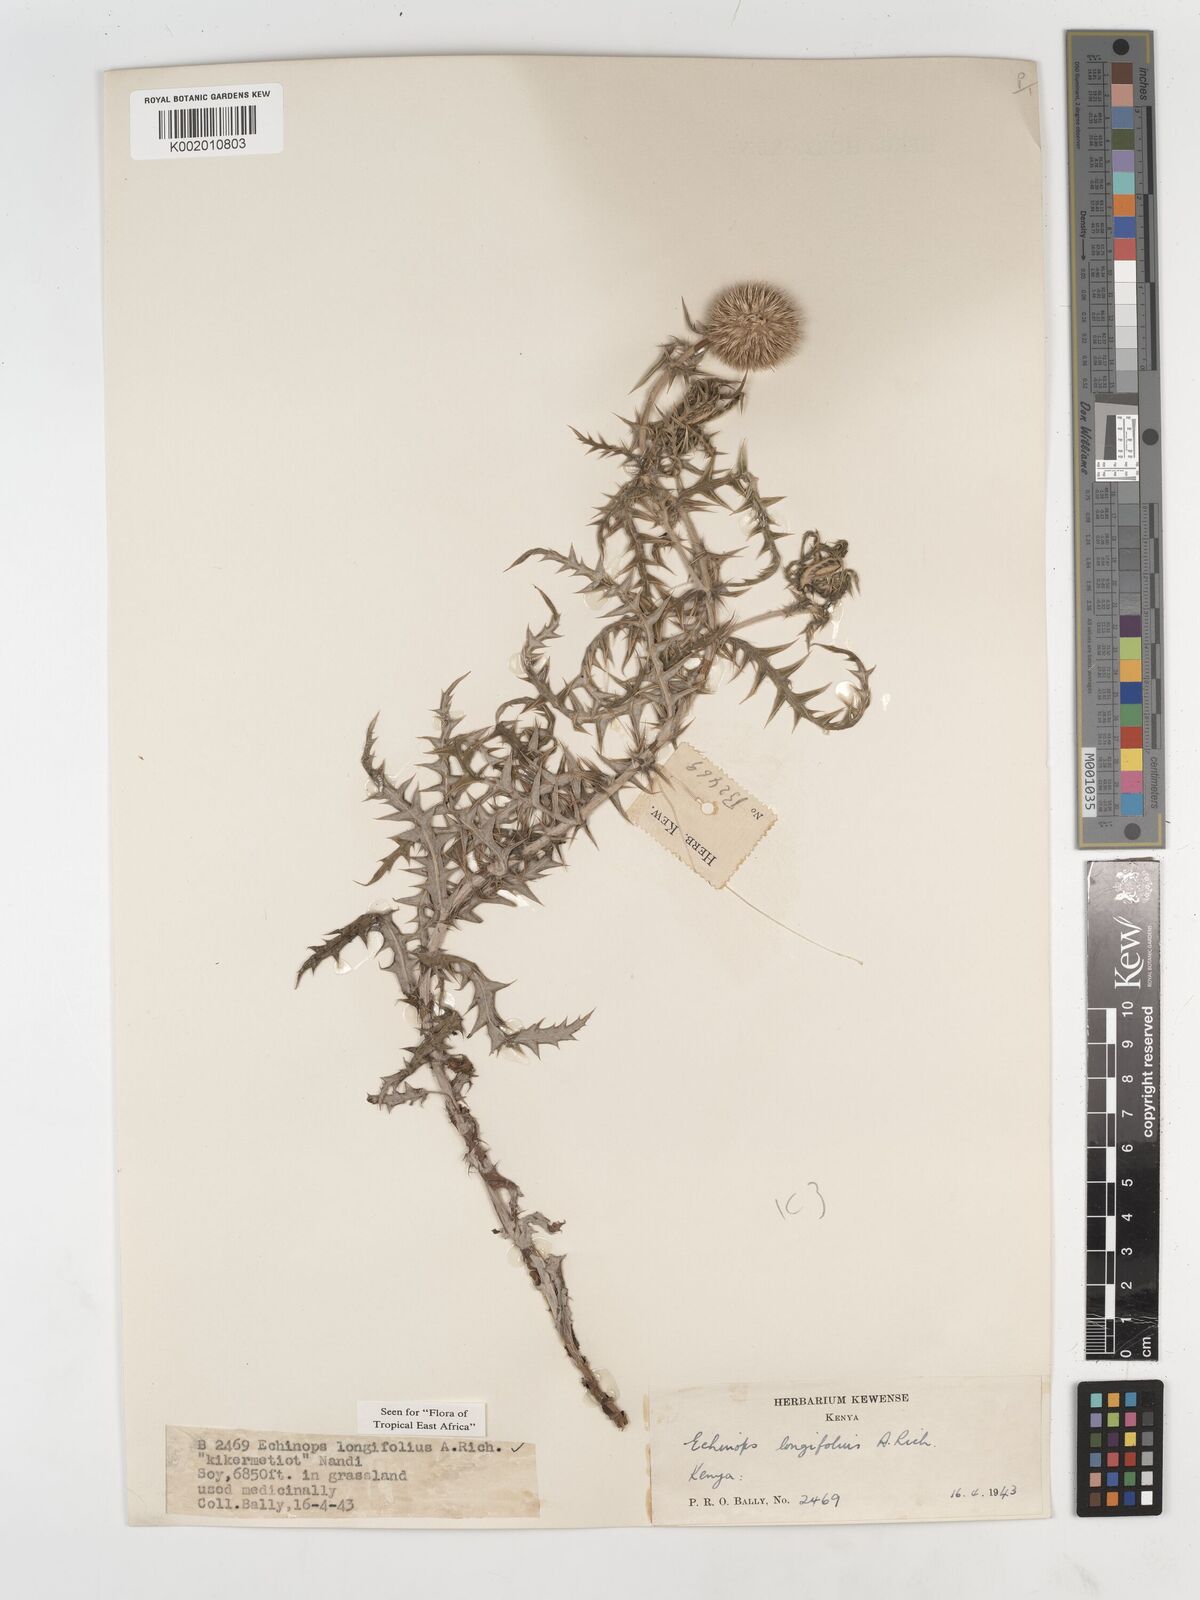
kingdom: Plantae
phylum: Tracheophyta
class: Magnoliopsida
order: Asterales
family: Asteraceae
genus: Echinops
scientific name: Echinops longifolius
